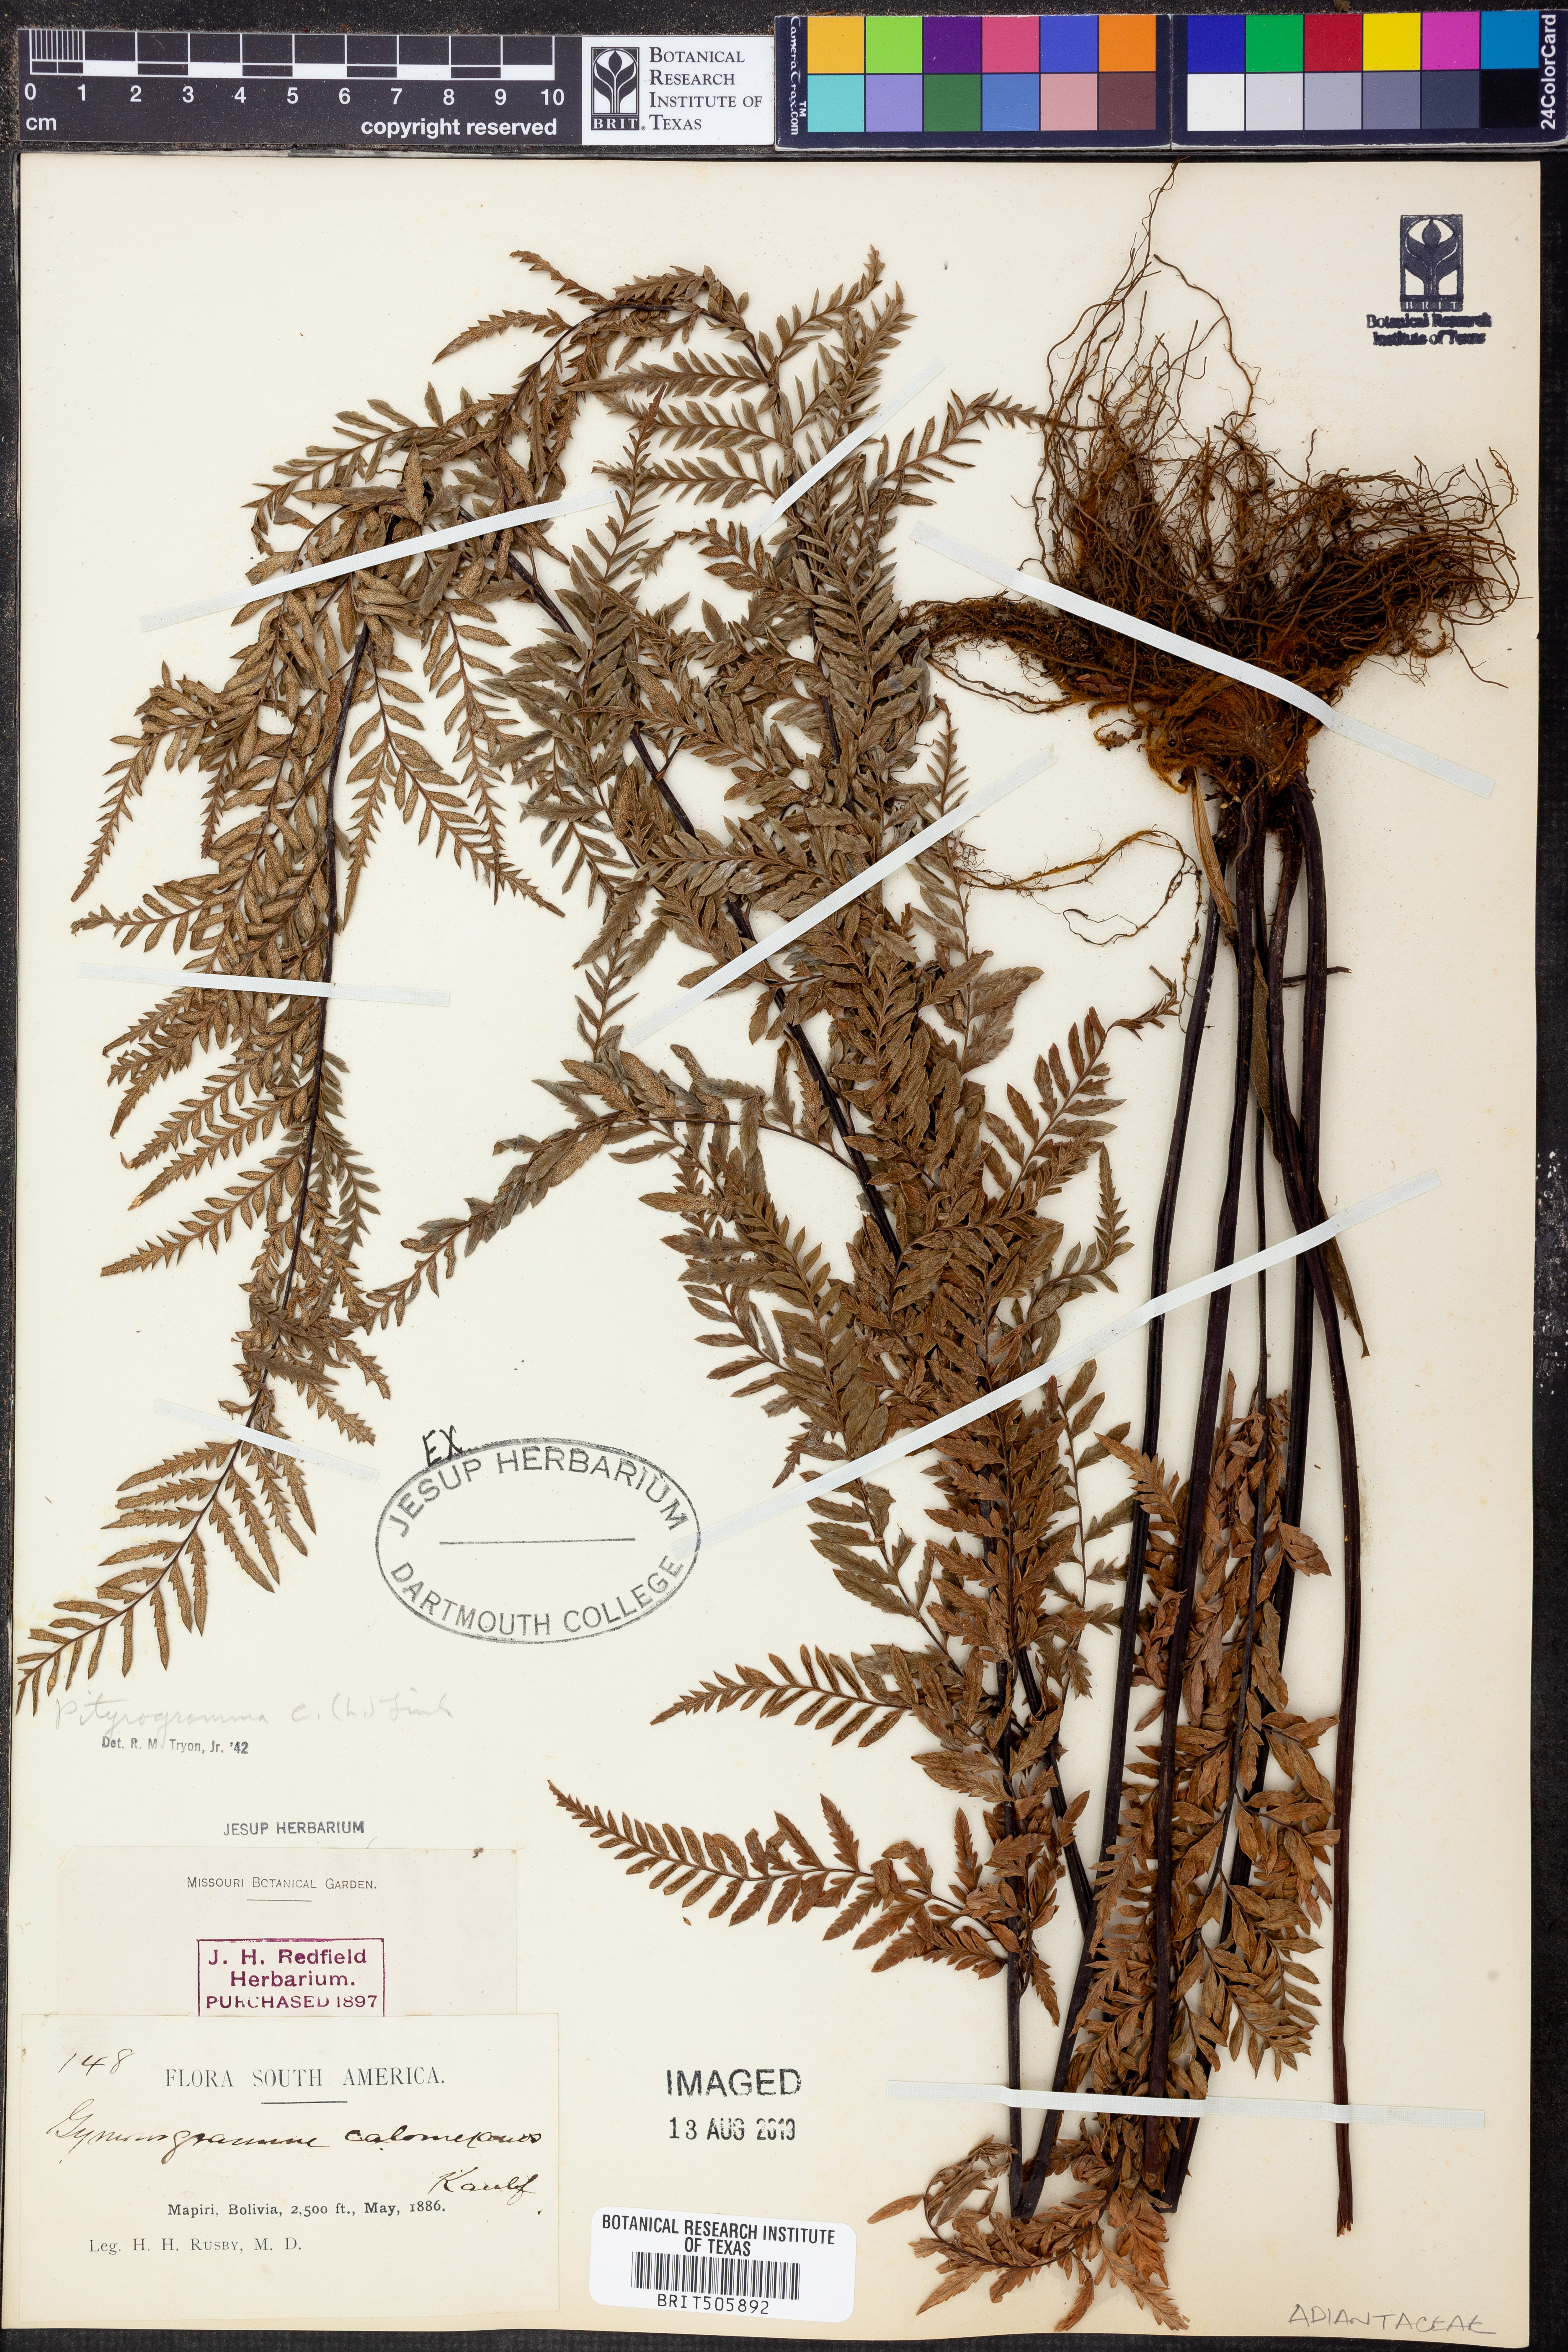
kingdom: Plantae
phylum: Tracheophyta
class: Polypodiopsida
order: Polypodiales
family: Pteridaceae
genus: Pityrogramma
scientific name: Pityrogramma calomelanos
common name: Dixie silverback fern
